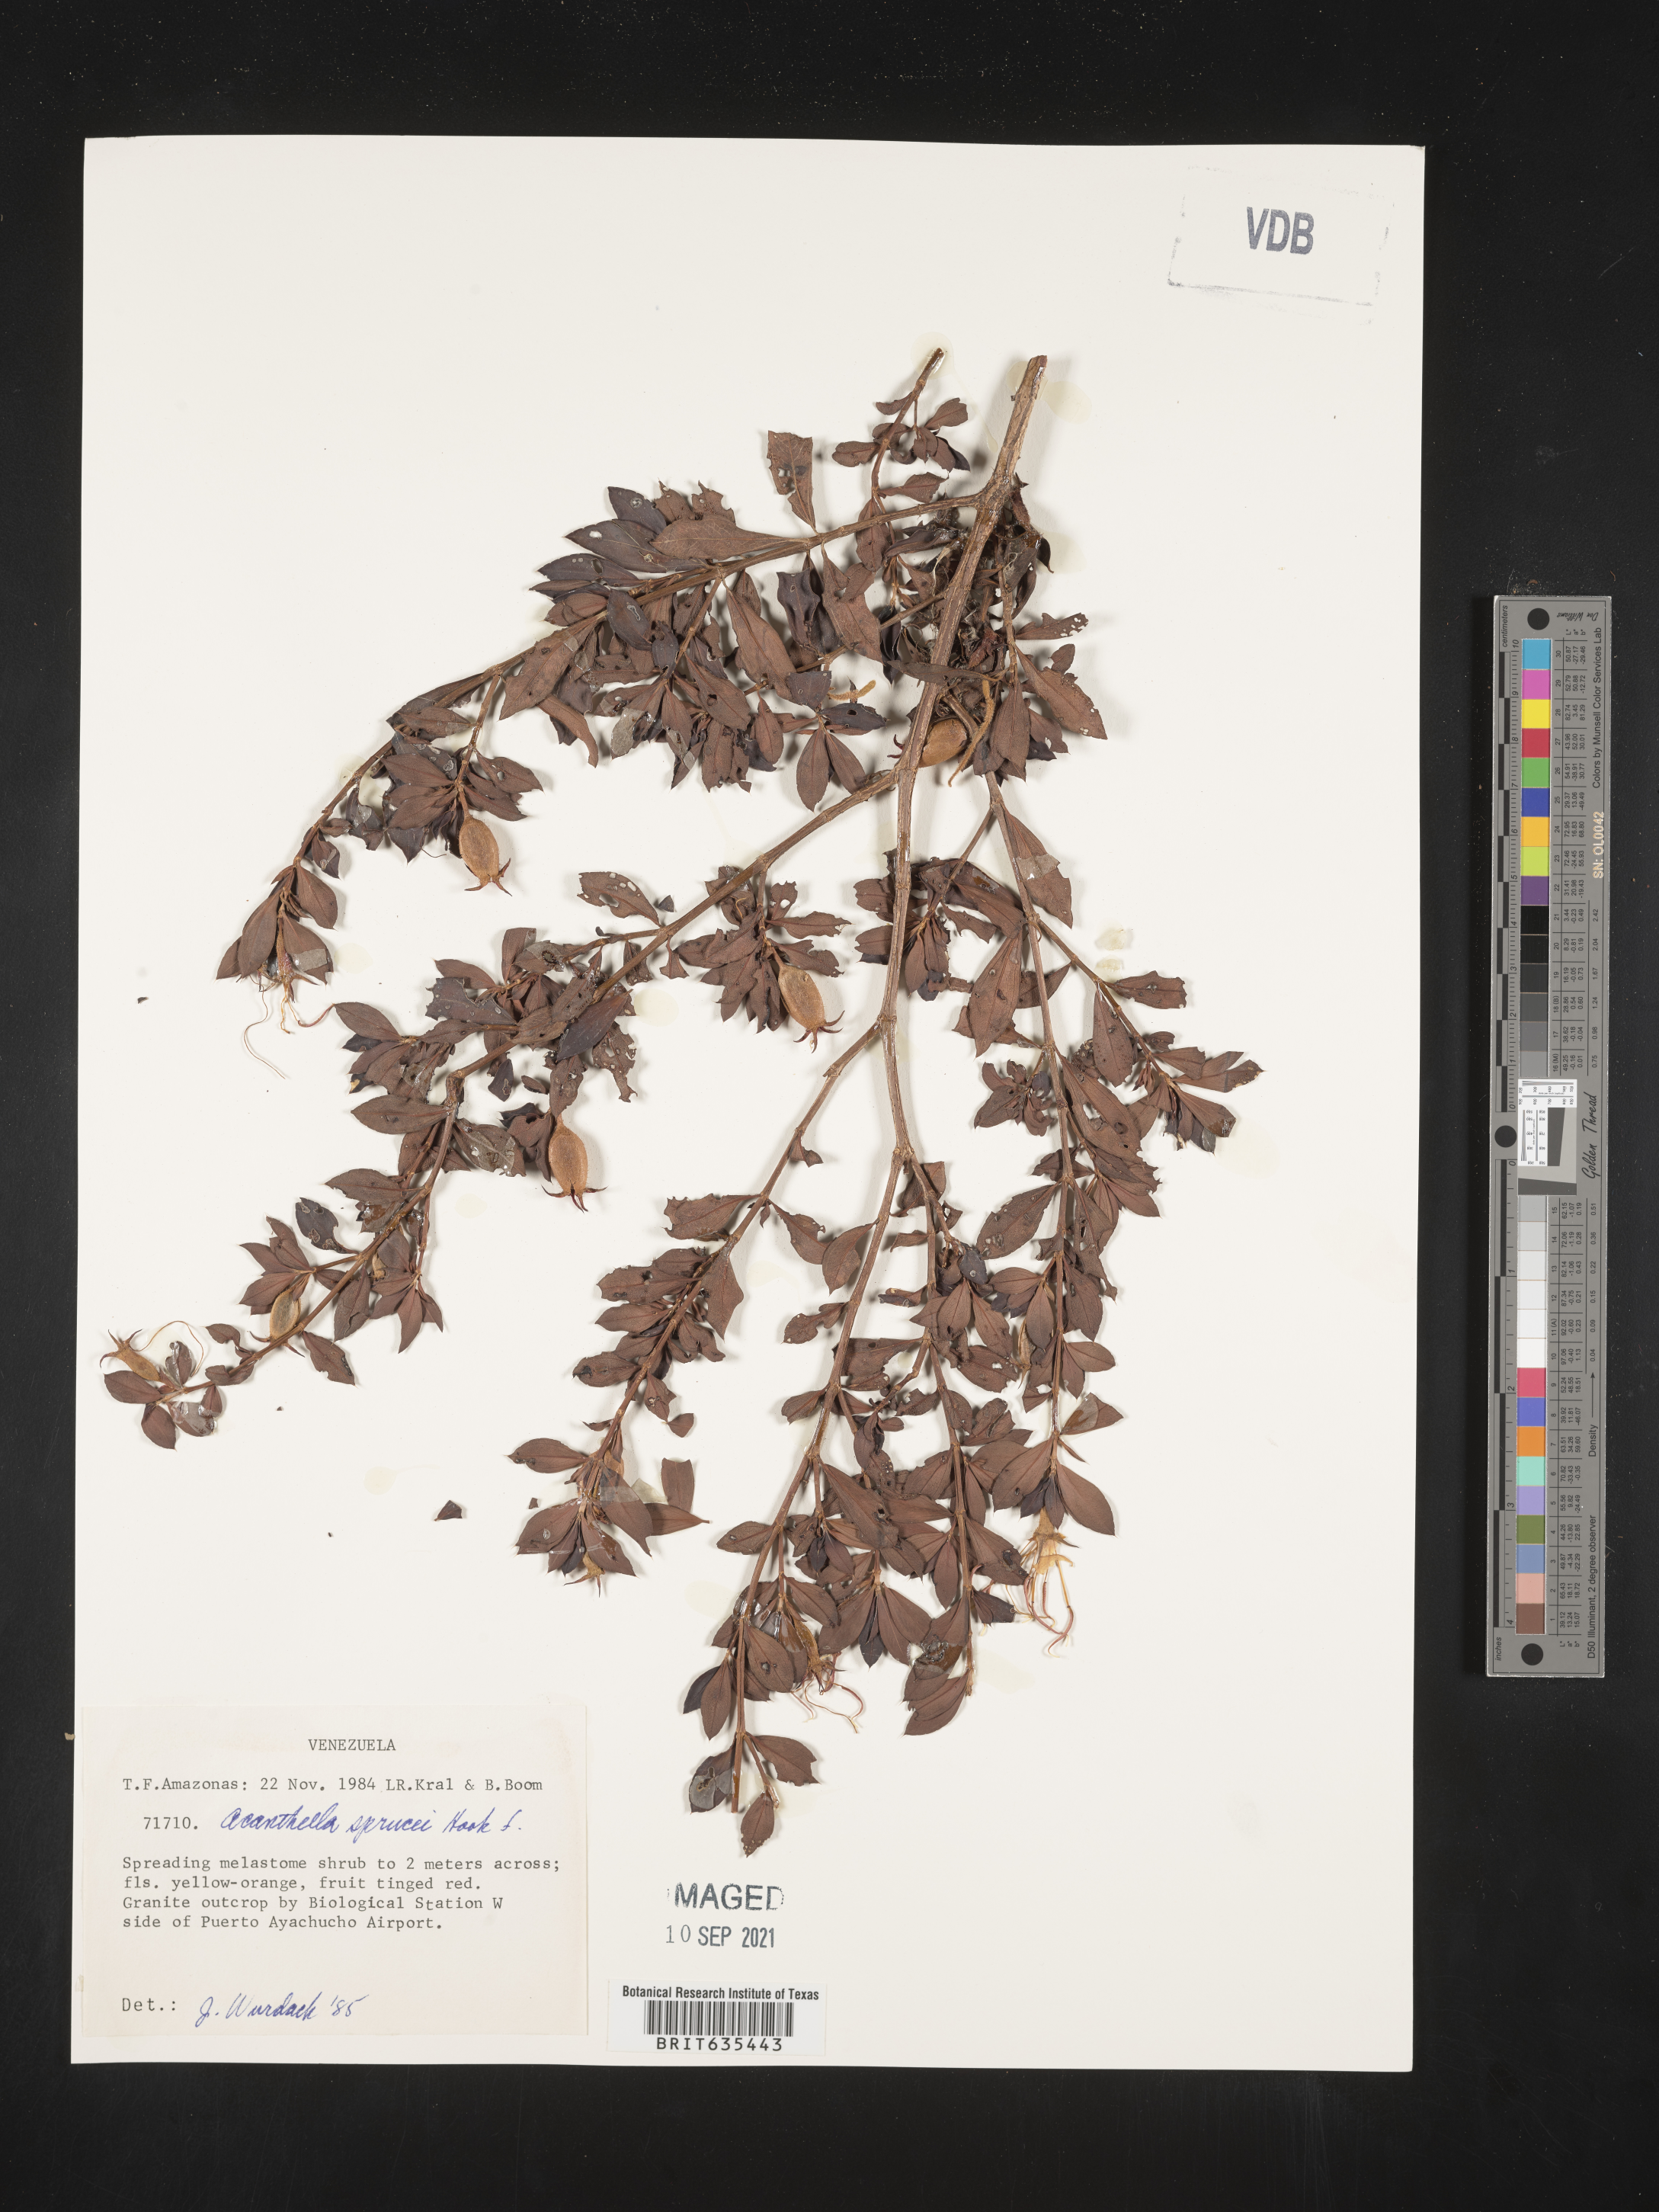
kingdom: Plantae
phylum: Tracheophyta
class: Magnoliopsida
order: Myrtales
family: Melastomataceae
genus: Acanthella
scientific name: Acanthella
